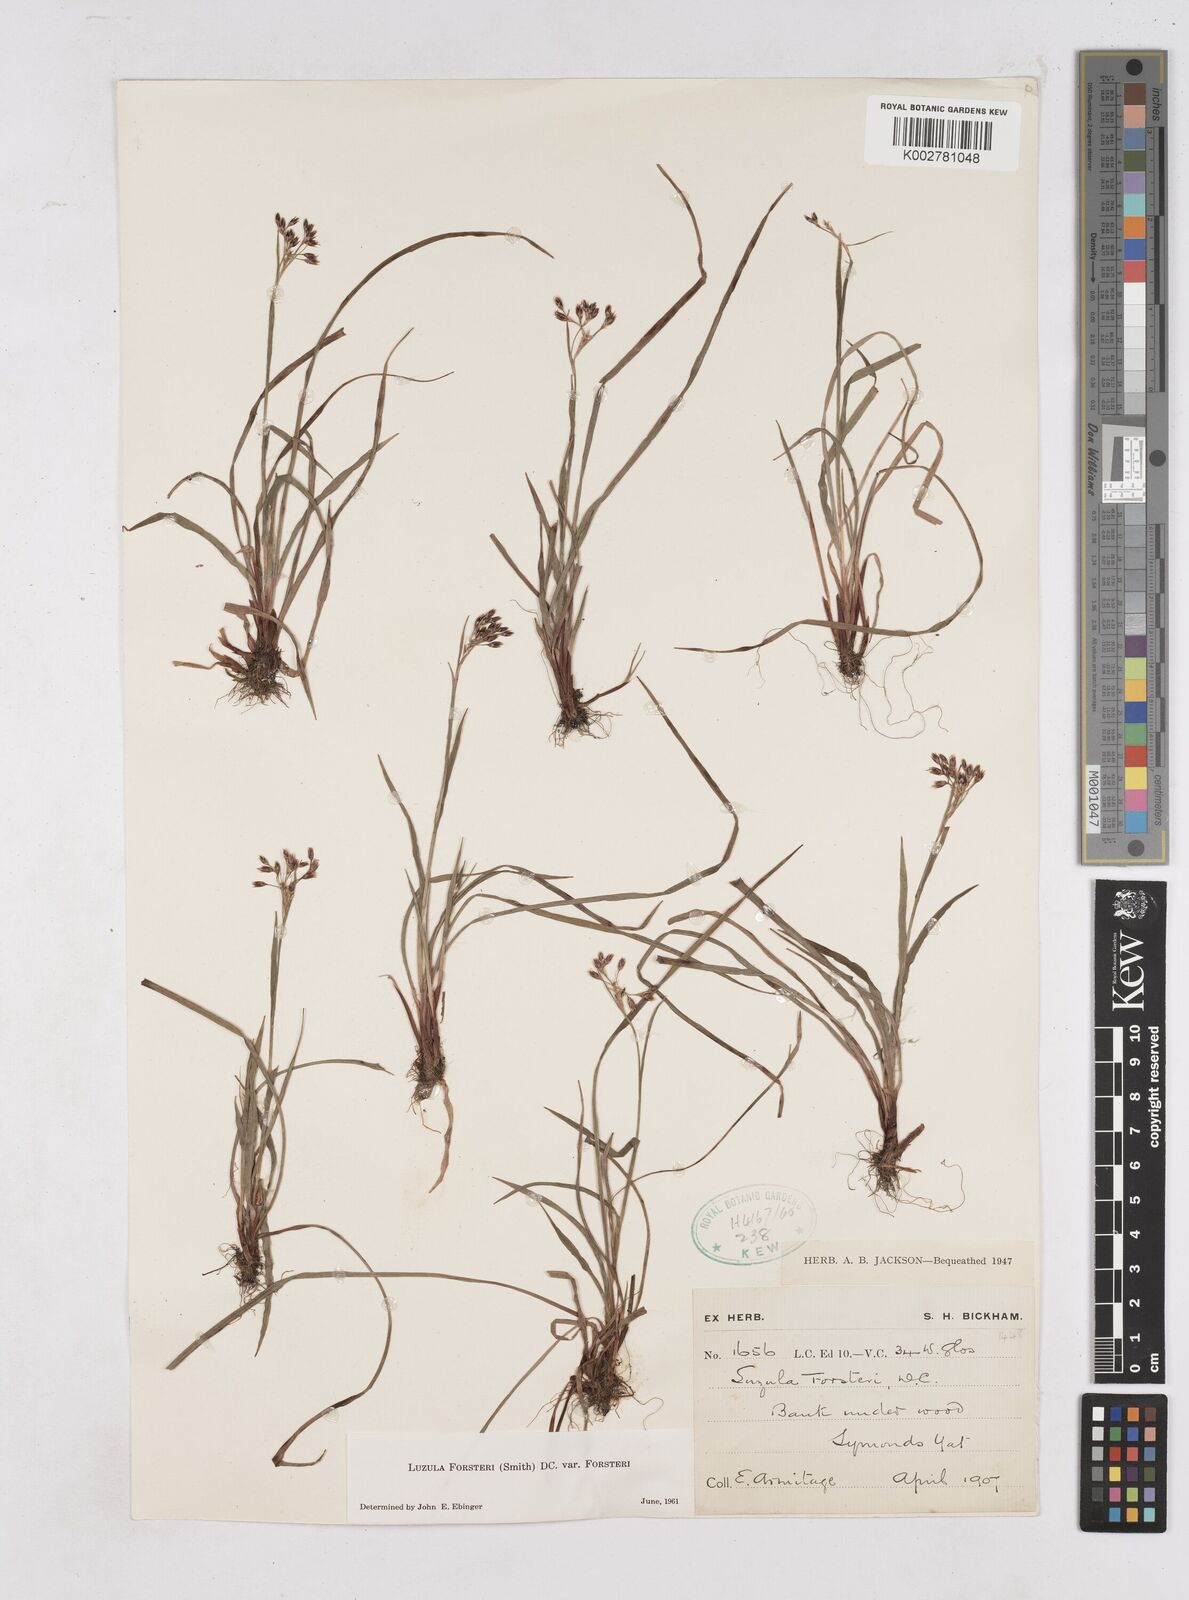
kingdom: Plantae
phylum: Tracheophyta
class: Liliopsida
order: Poales
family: Juncaceae
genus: Luzula
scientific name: Luzula forsteri
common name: Southern wood-rush
